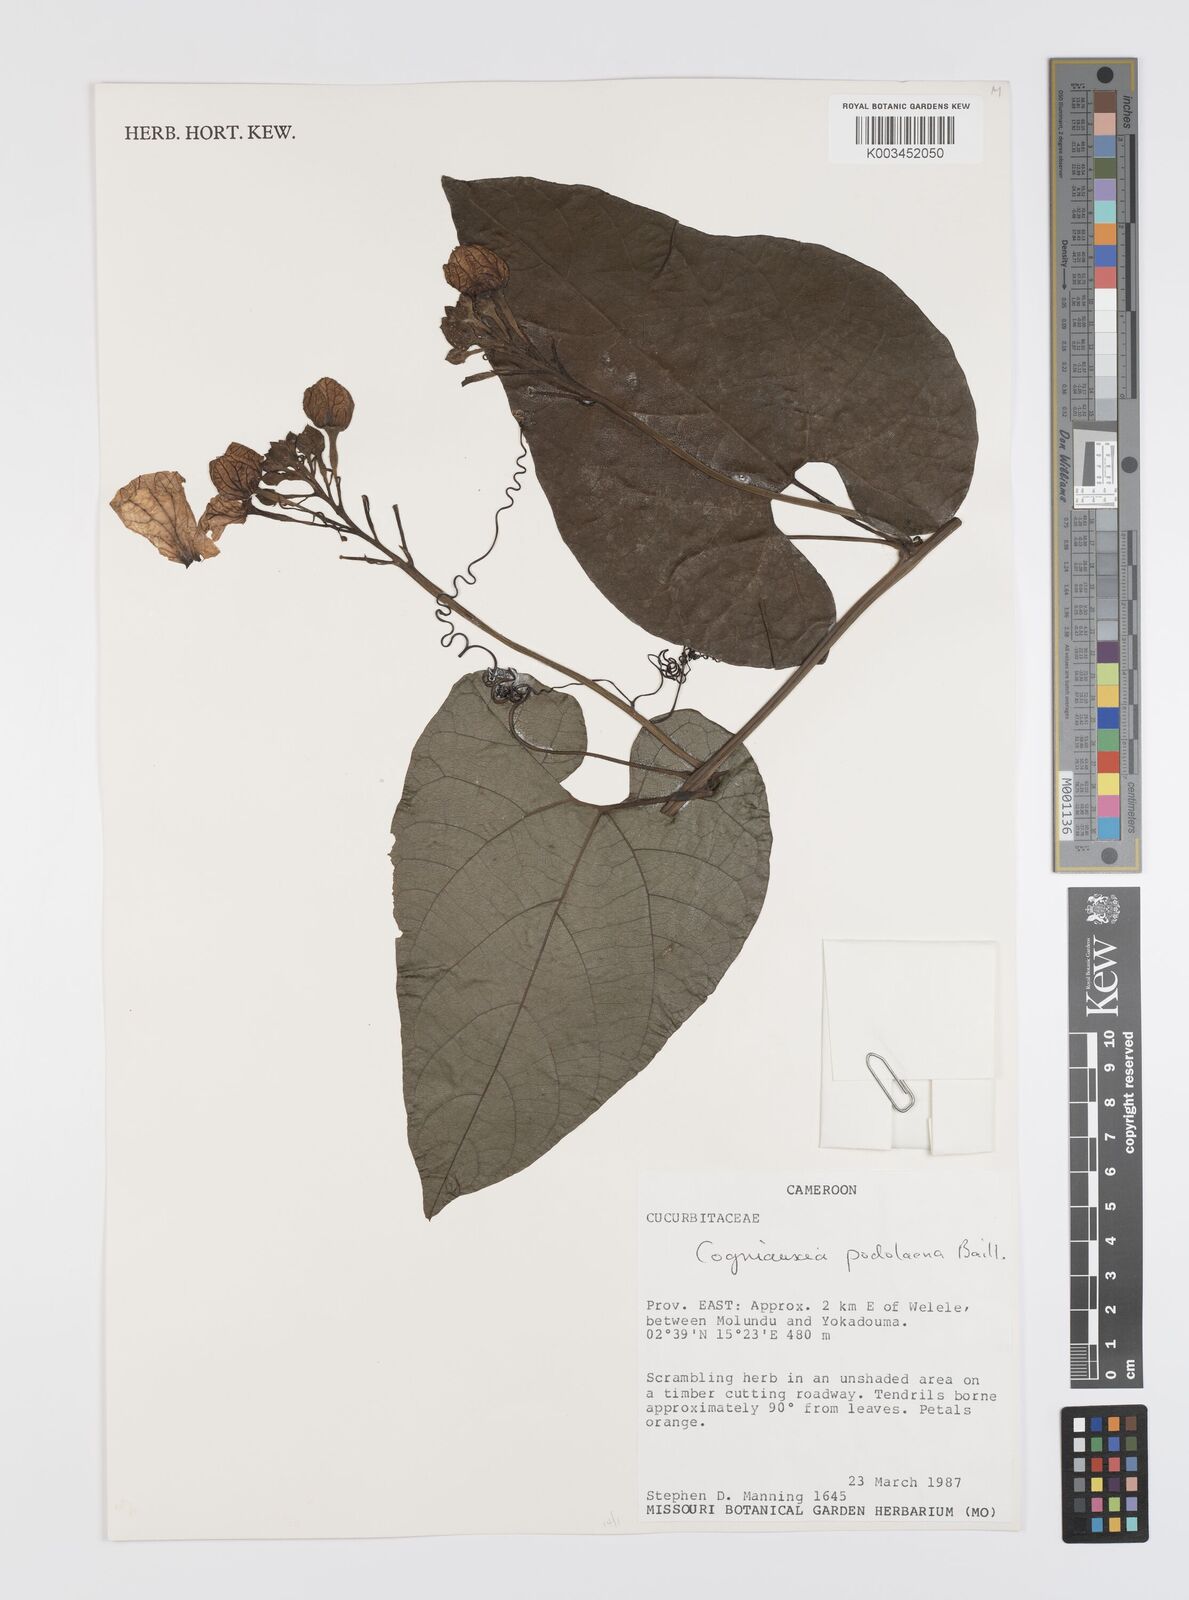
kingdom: Plantae
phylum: Tracheophyta
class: Magnoliopsida
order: Cucurbitales
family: Cucurbitaceae
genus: Cogniauxia
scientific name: Cogniauxia podolaena
